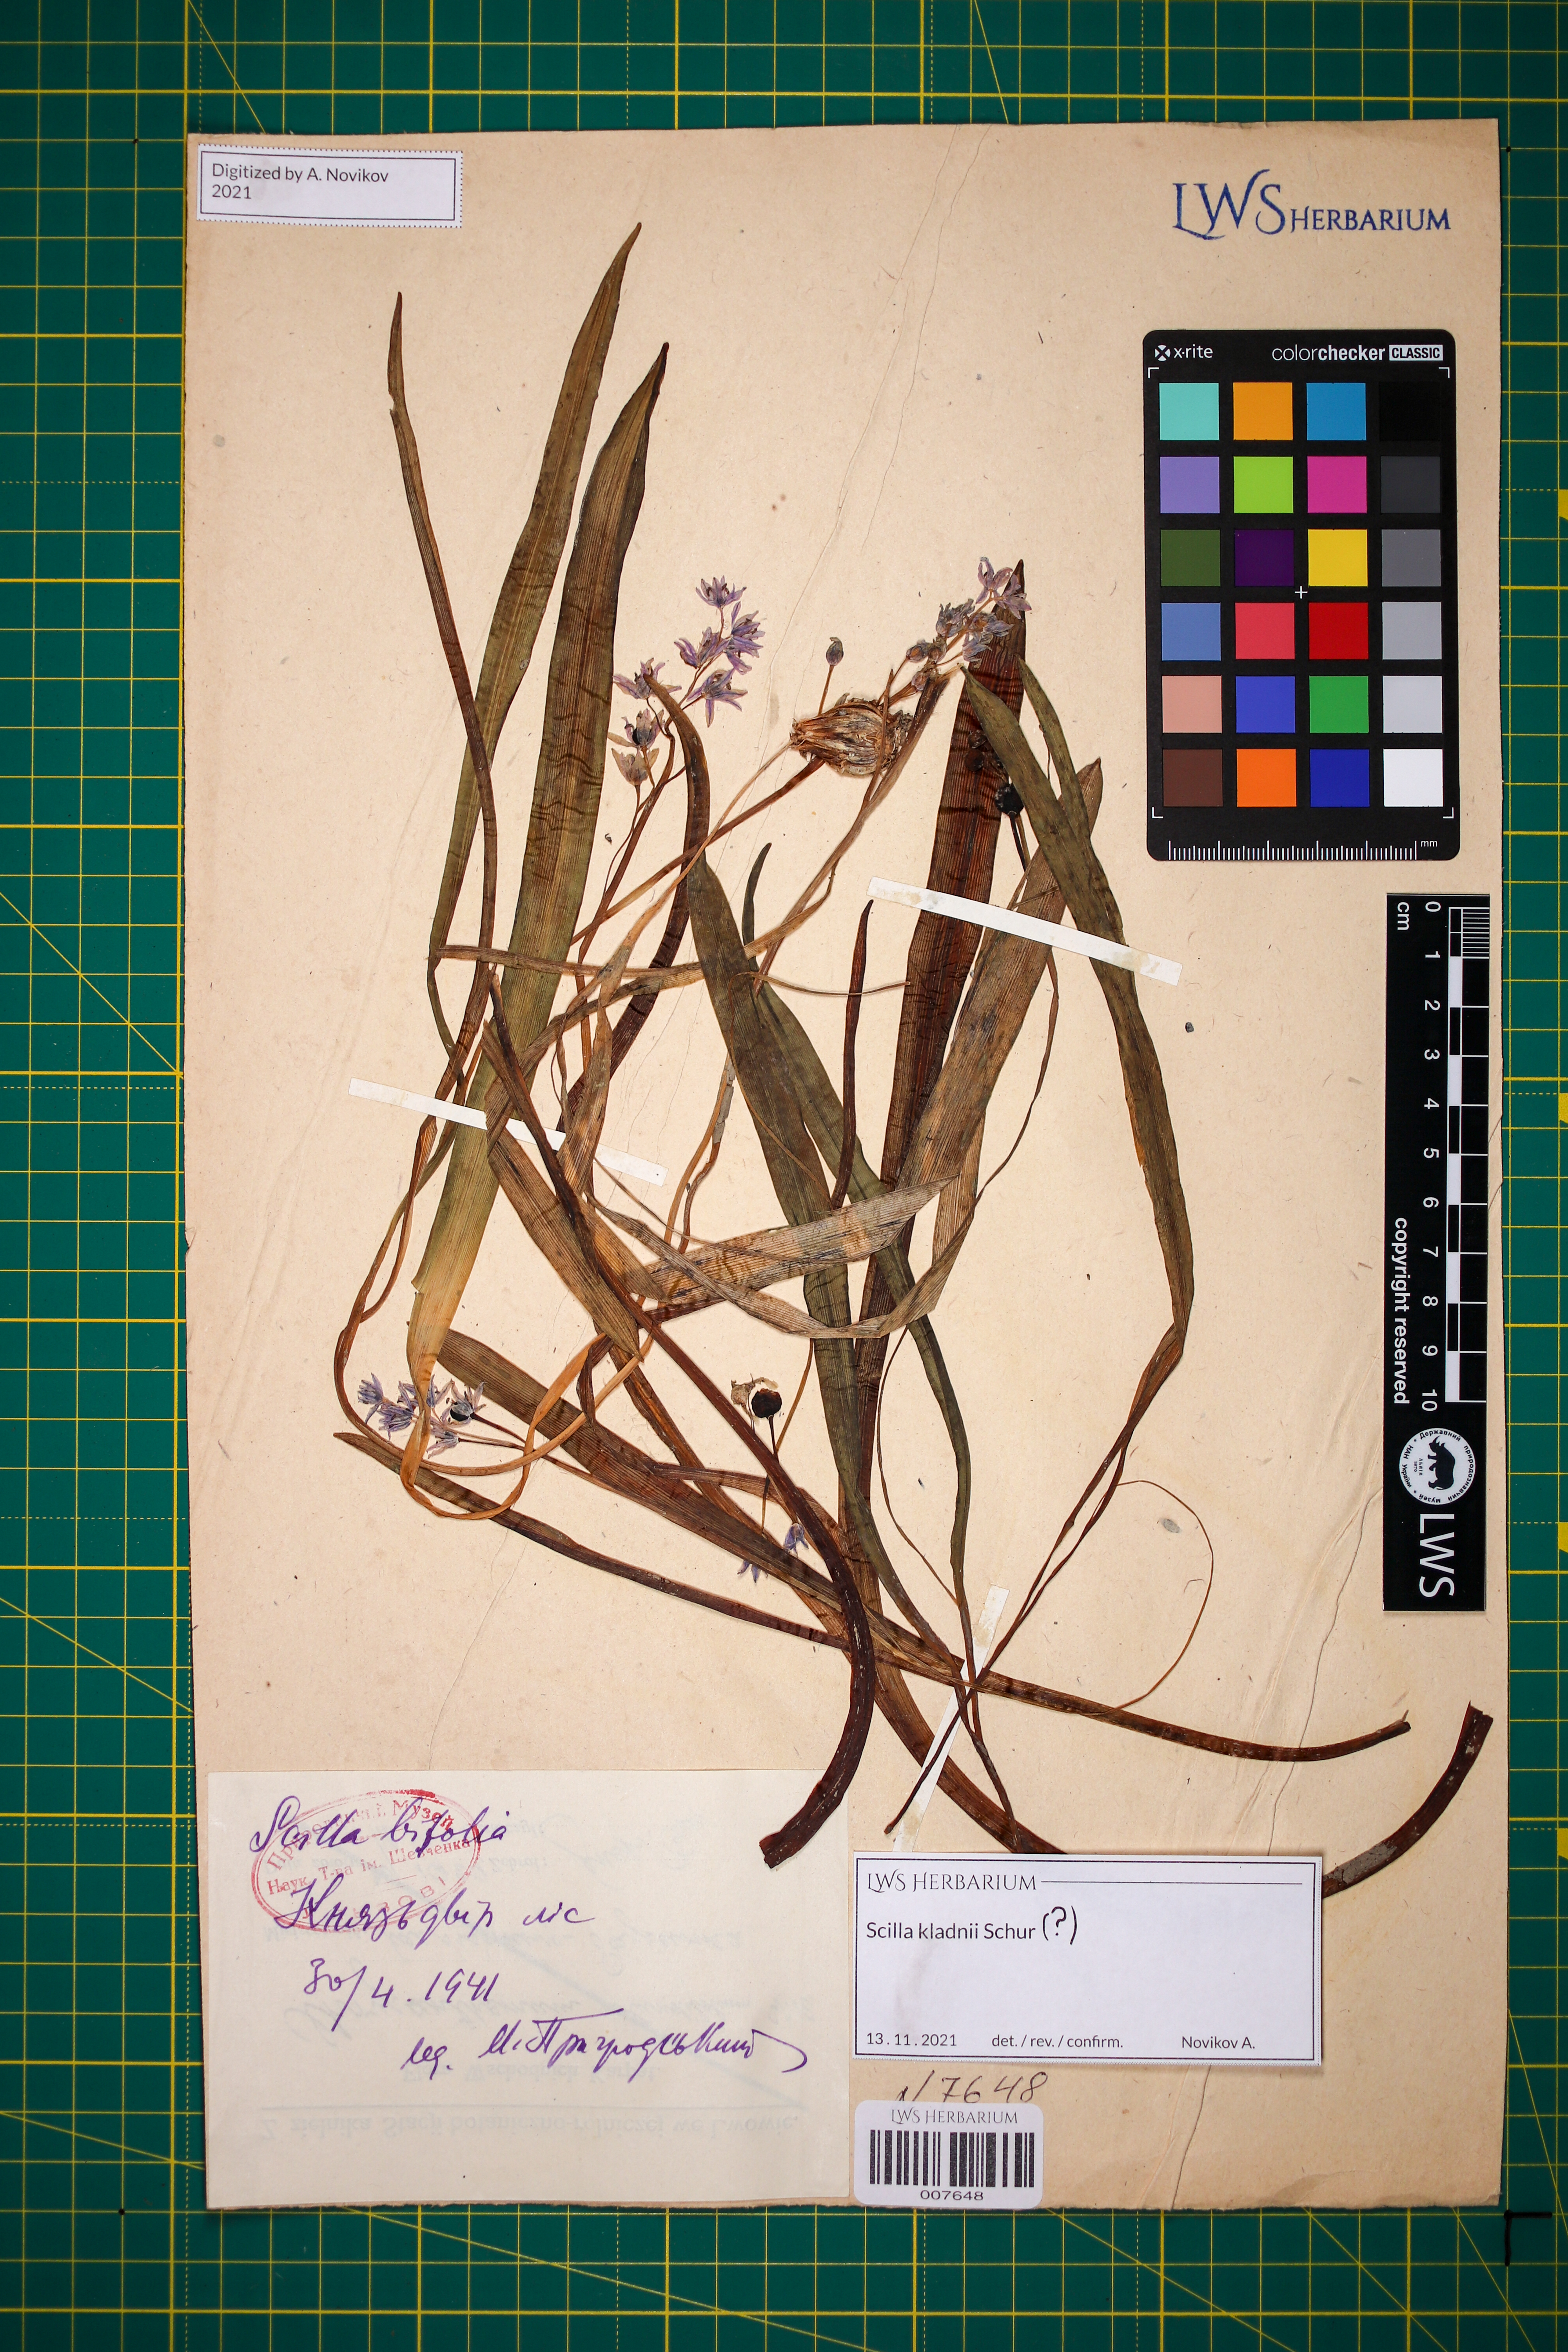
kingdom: Plantae
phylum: Tracheophyta
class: Liliopsida
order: Asparagales
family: Asparagaceae
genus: Scilla
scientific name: Scilla kladnii
